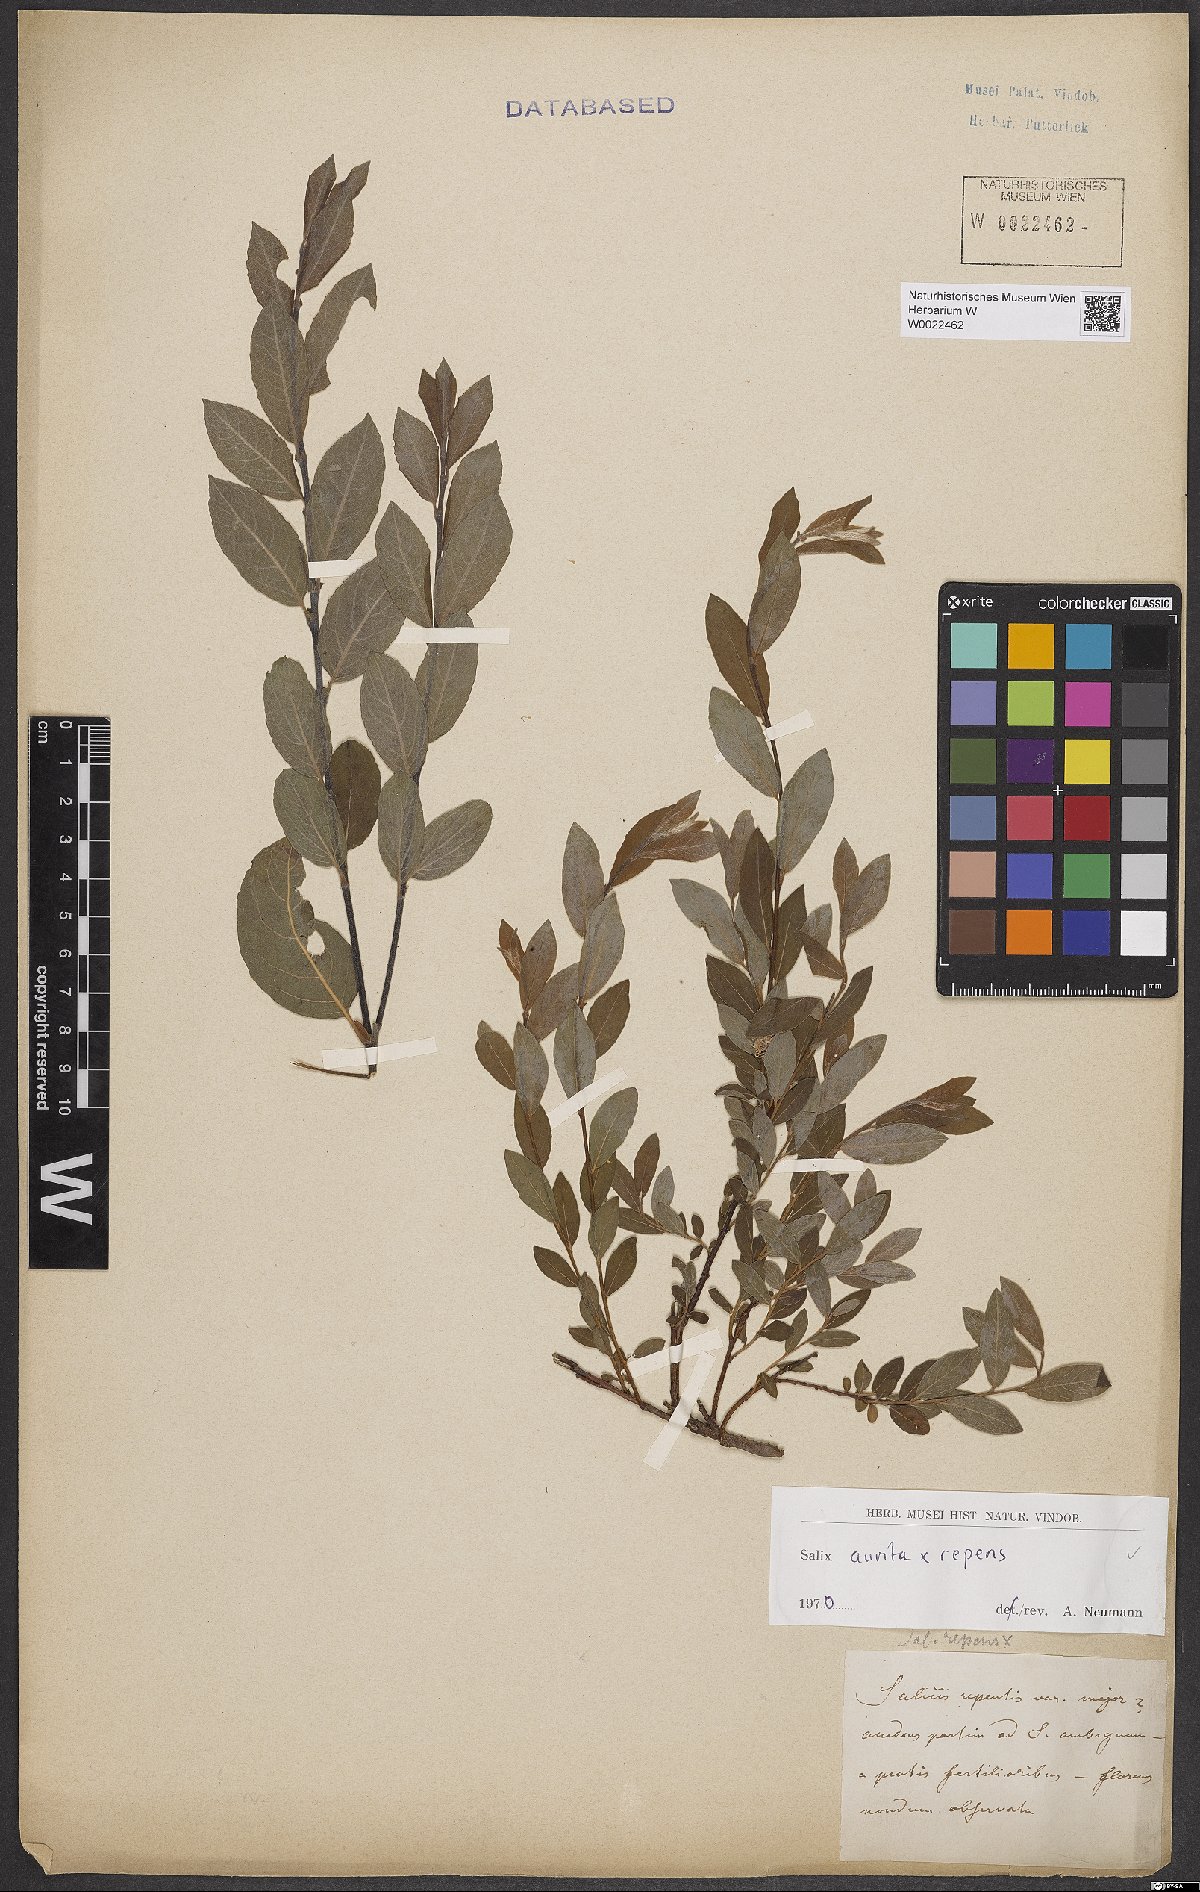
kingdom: Plantae
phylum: Tracheophyta
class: Magnoliopsida
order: Malpighiales
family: Salicaceae
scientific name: Salicaceae
